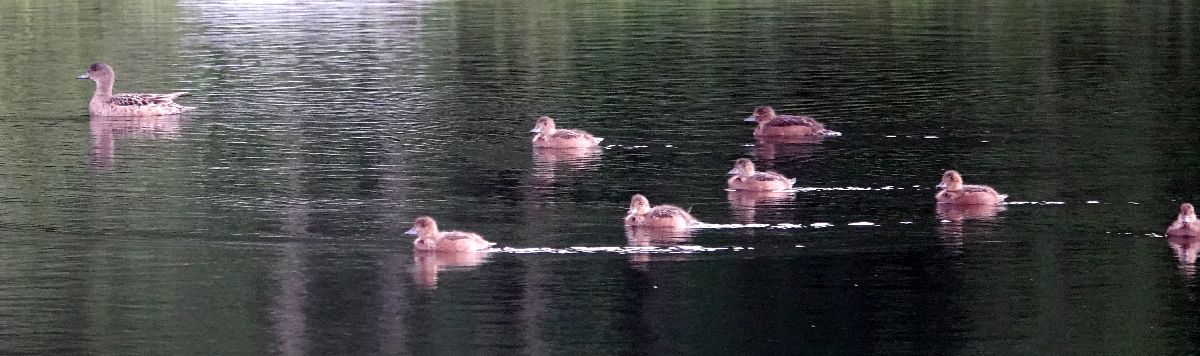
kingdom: Animalia
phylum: Chordata
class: Aves
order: Anseriformes
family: Anatidae
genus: Mareca
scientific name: Mareca penelope
